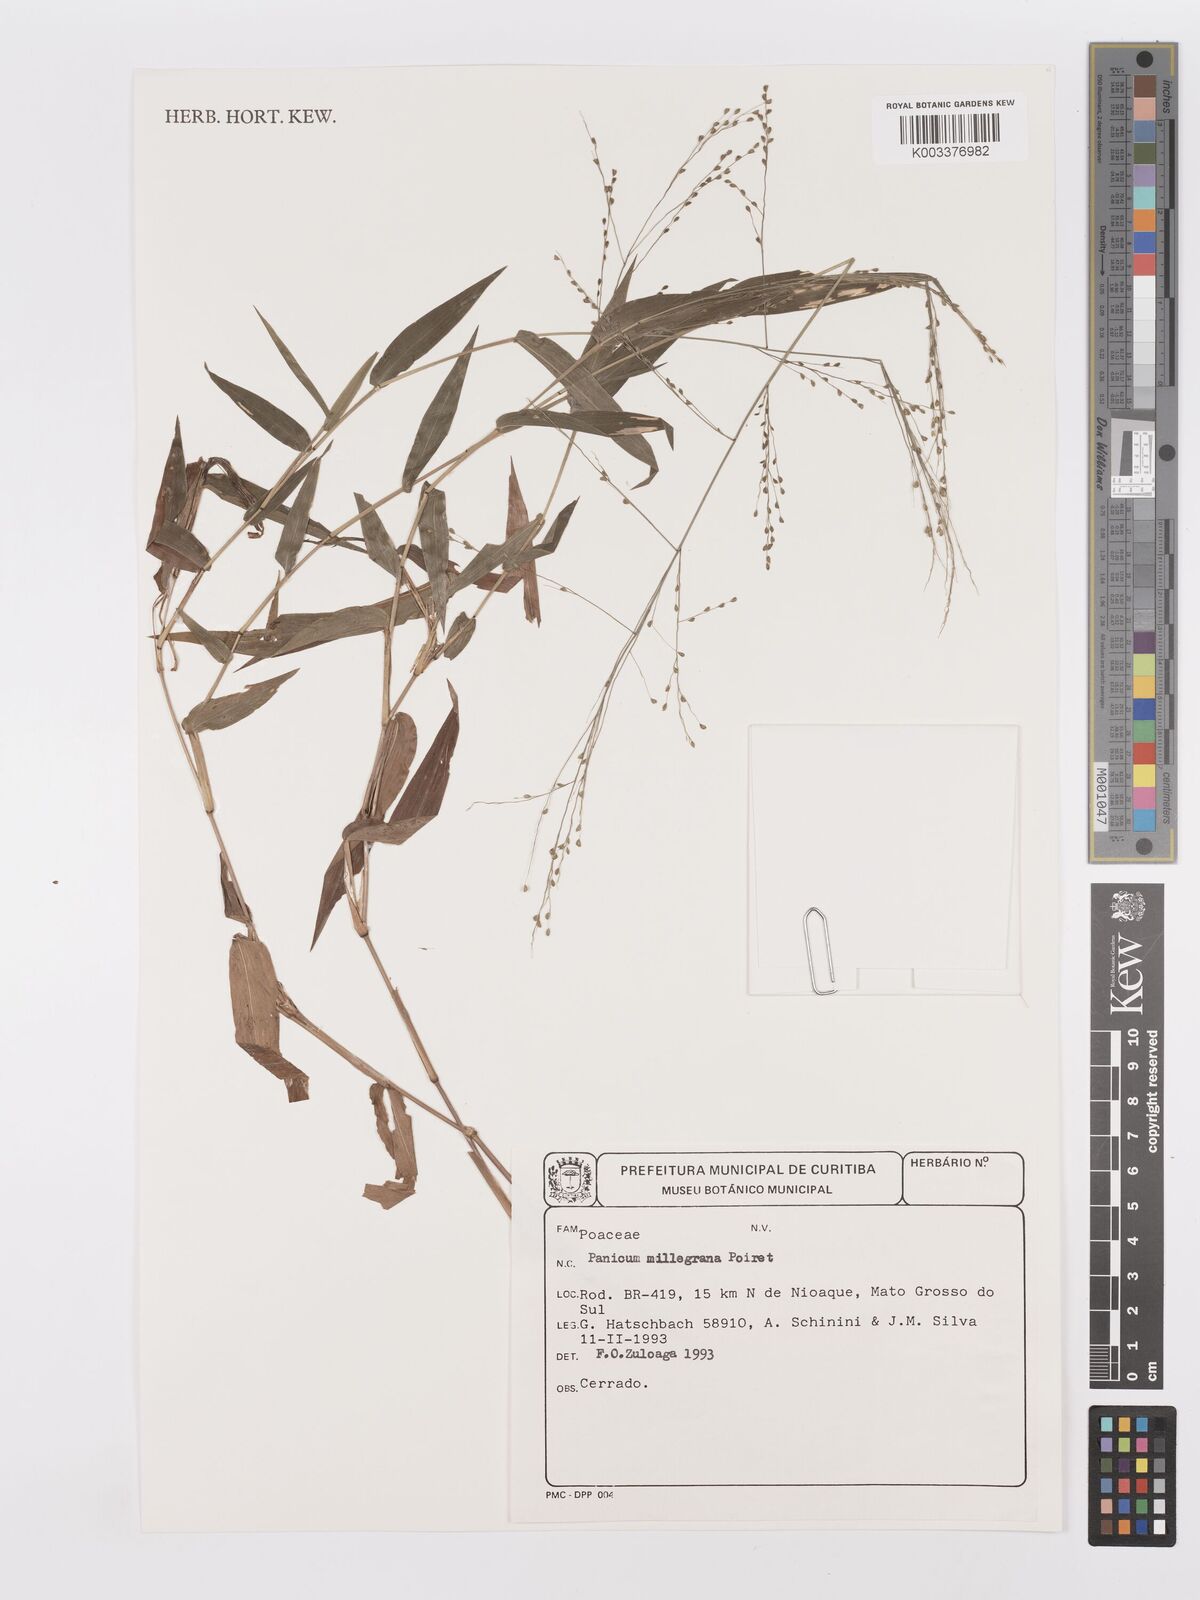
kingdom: Plantae
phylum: Tracheophyta
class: Liliopsida
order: Poales
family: Poaceae
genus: Panicum
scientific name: Panicum millegrana
